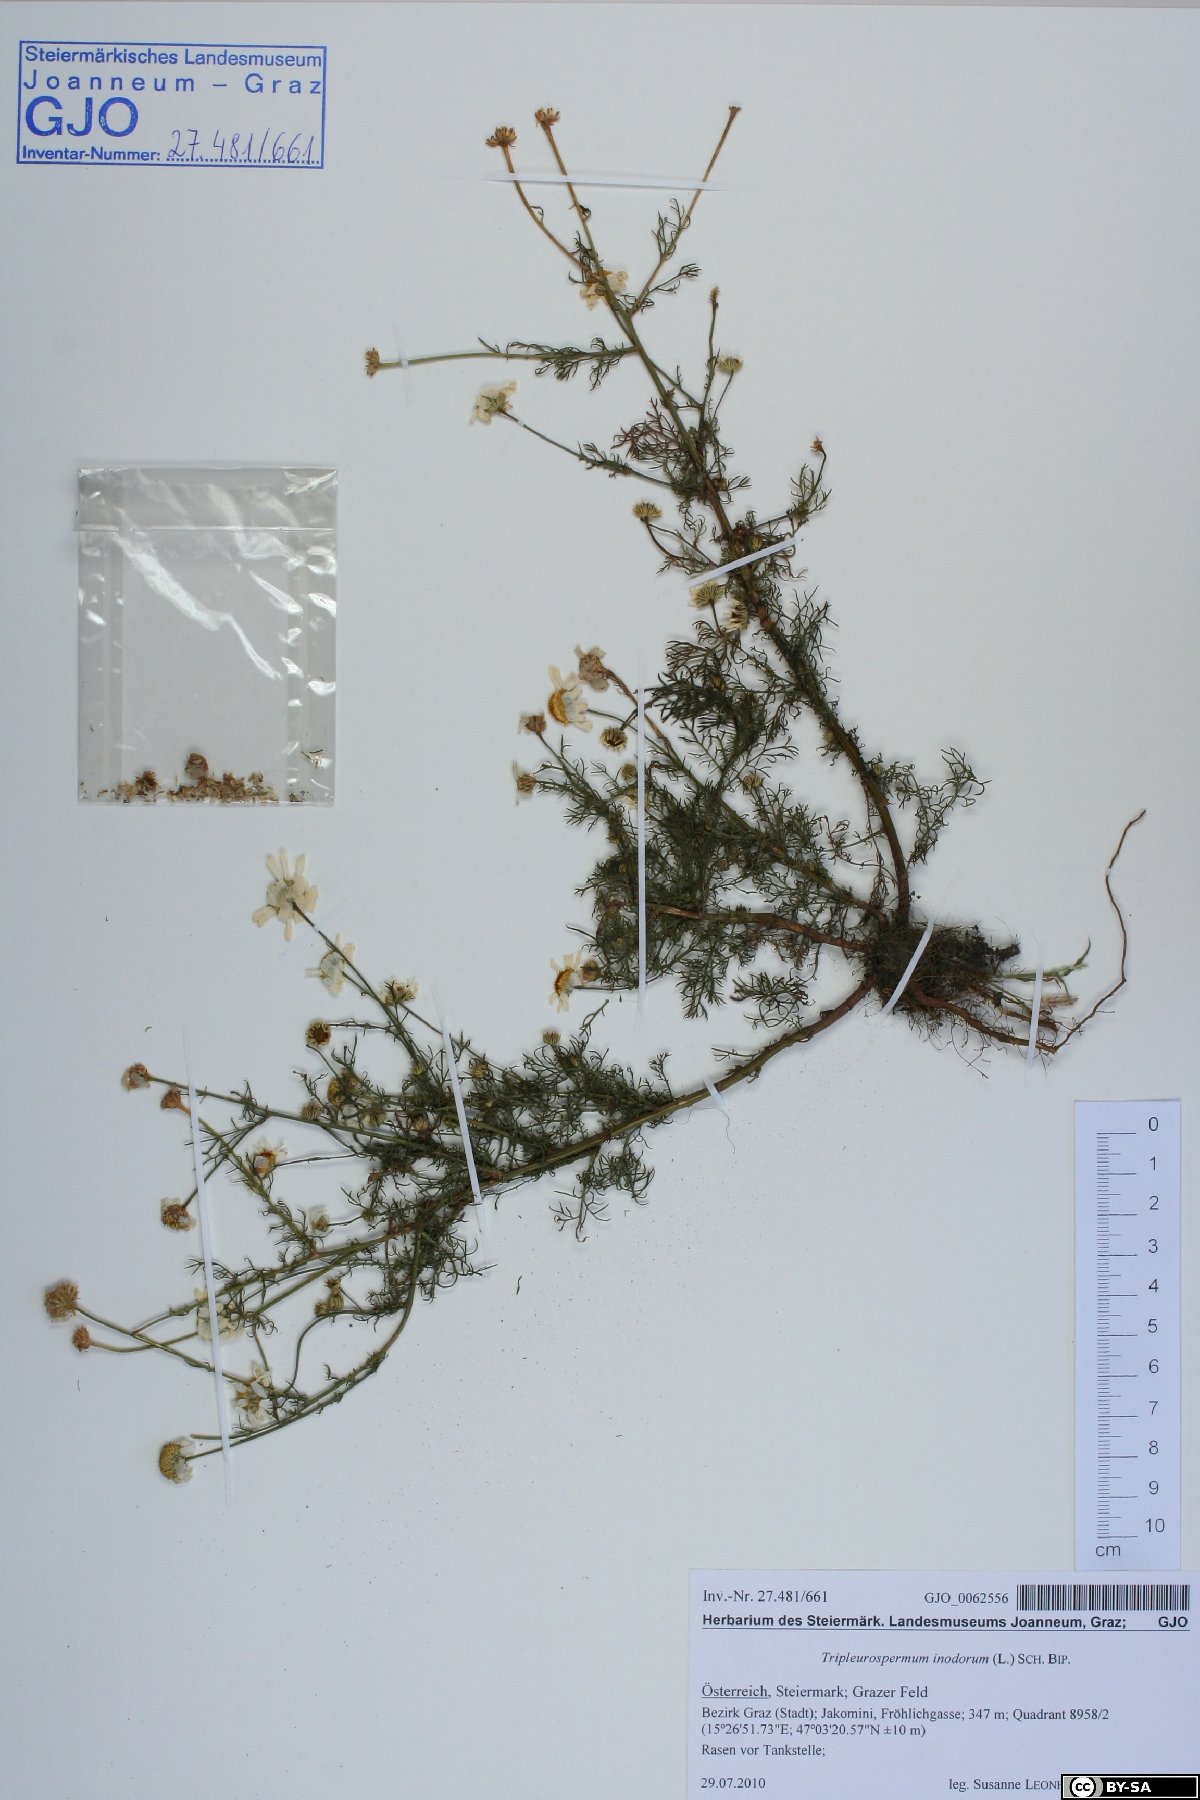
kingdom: Plantae
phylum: Tracheophyta
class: Magnoliopsida
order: Asterales
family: Asteraceae
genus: Tripleurospermum
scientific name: Tripleurospermum inodorum
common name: Scentless mayweed
